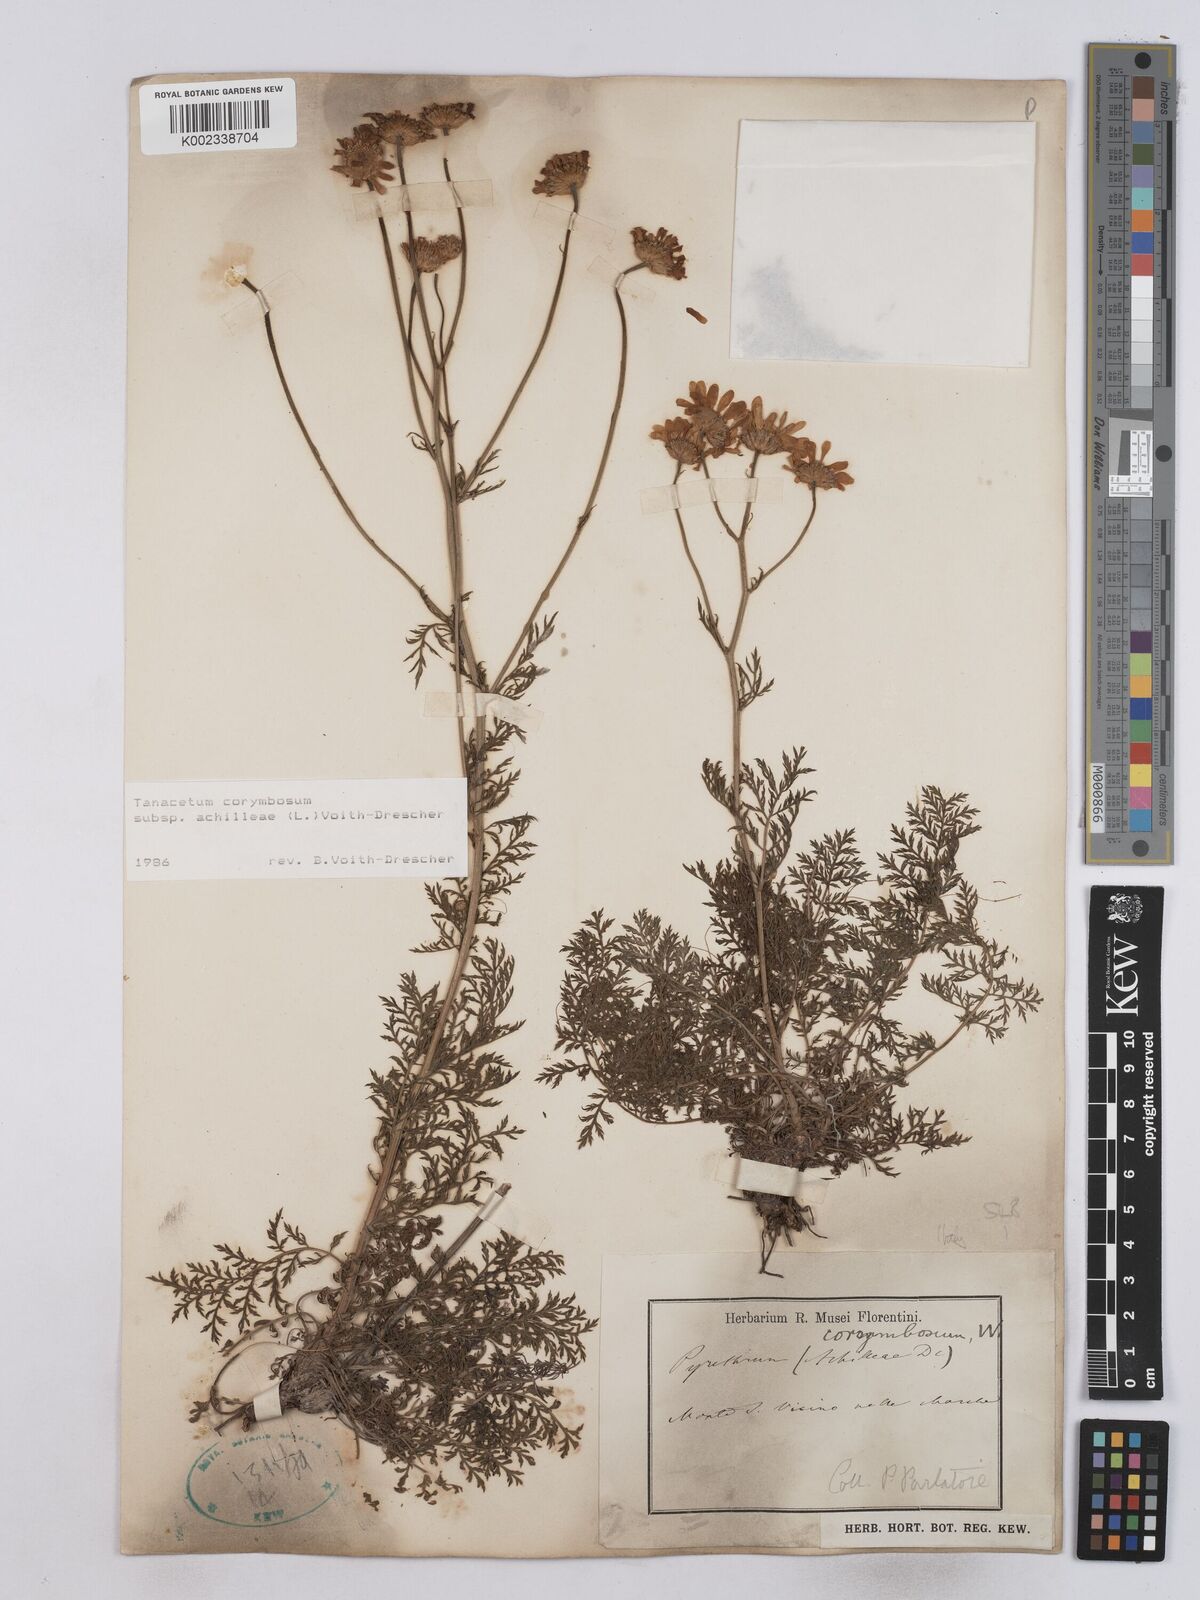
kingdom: Plantae
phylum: Tracheophyta
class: Magnoliopsida
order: Asterales
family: Asteraceae
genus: Tanacetum
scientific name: Tanacetum corymbosum
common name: Scentless feverfew
